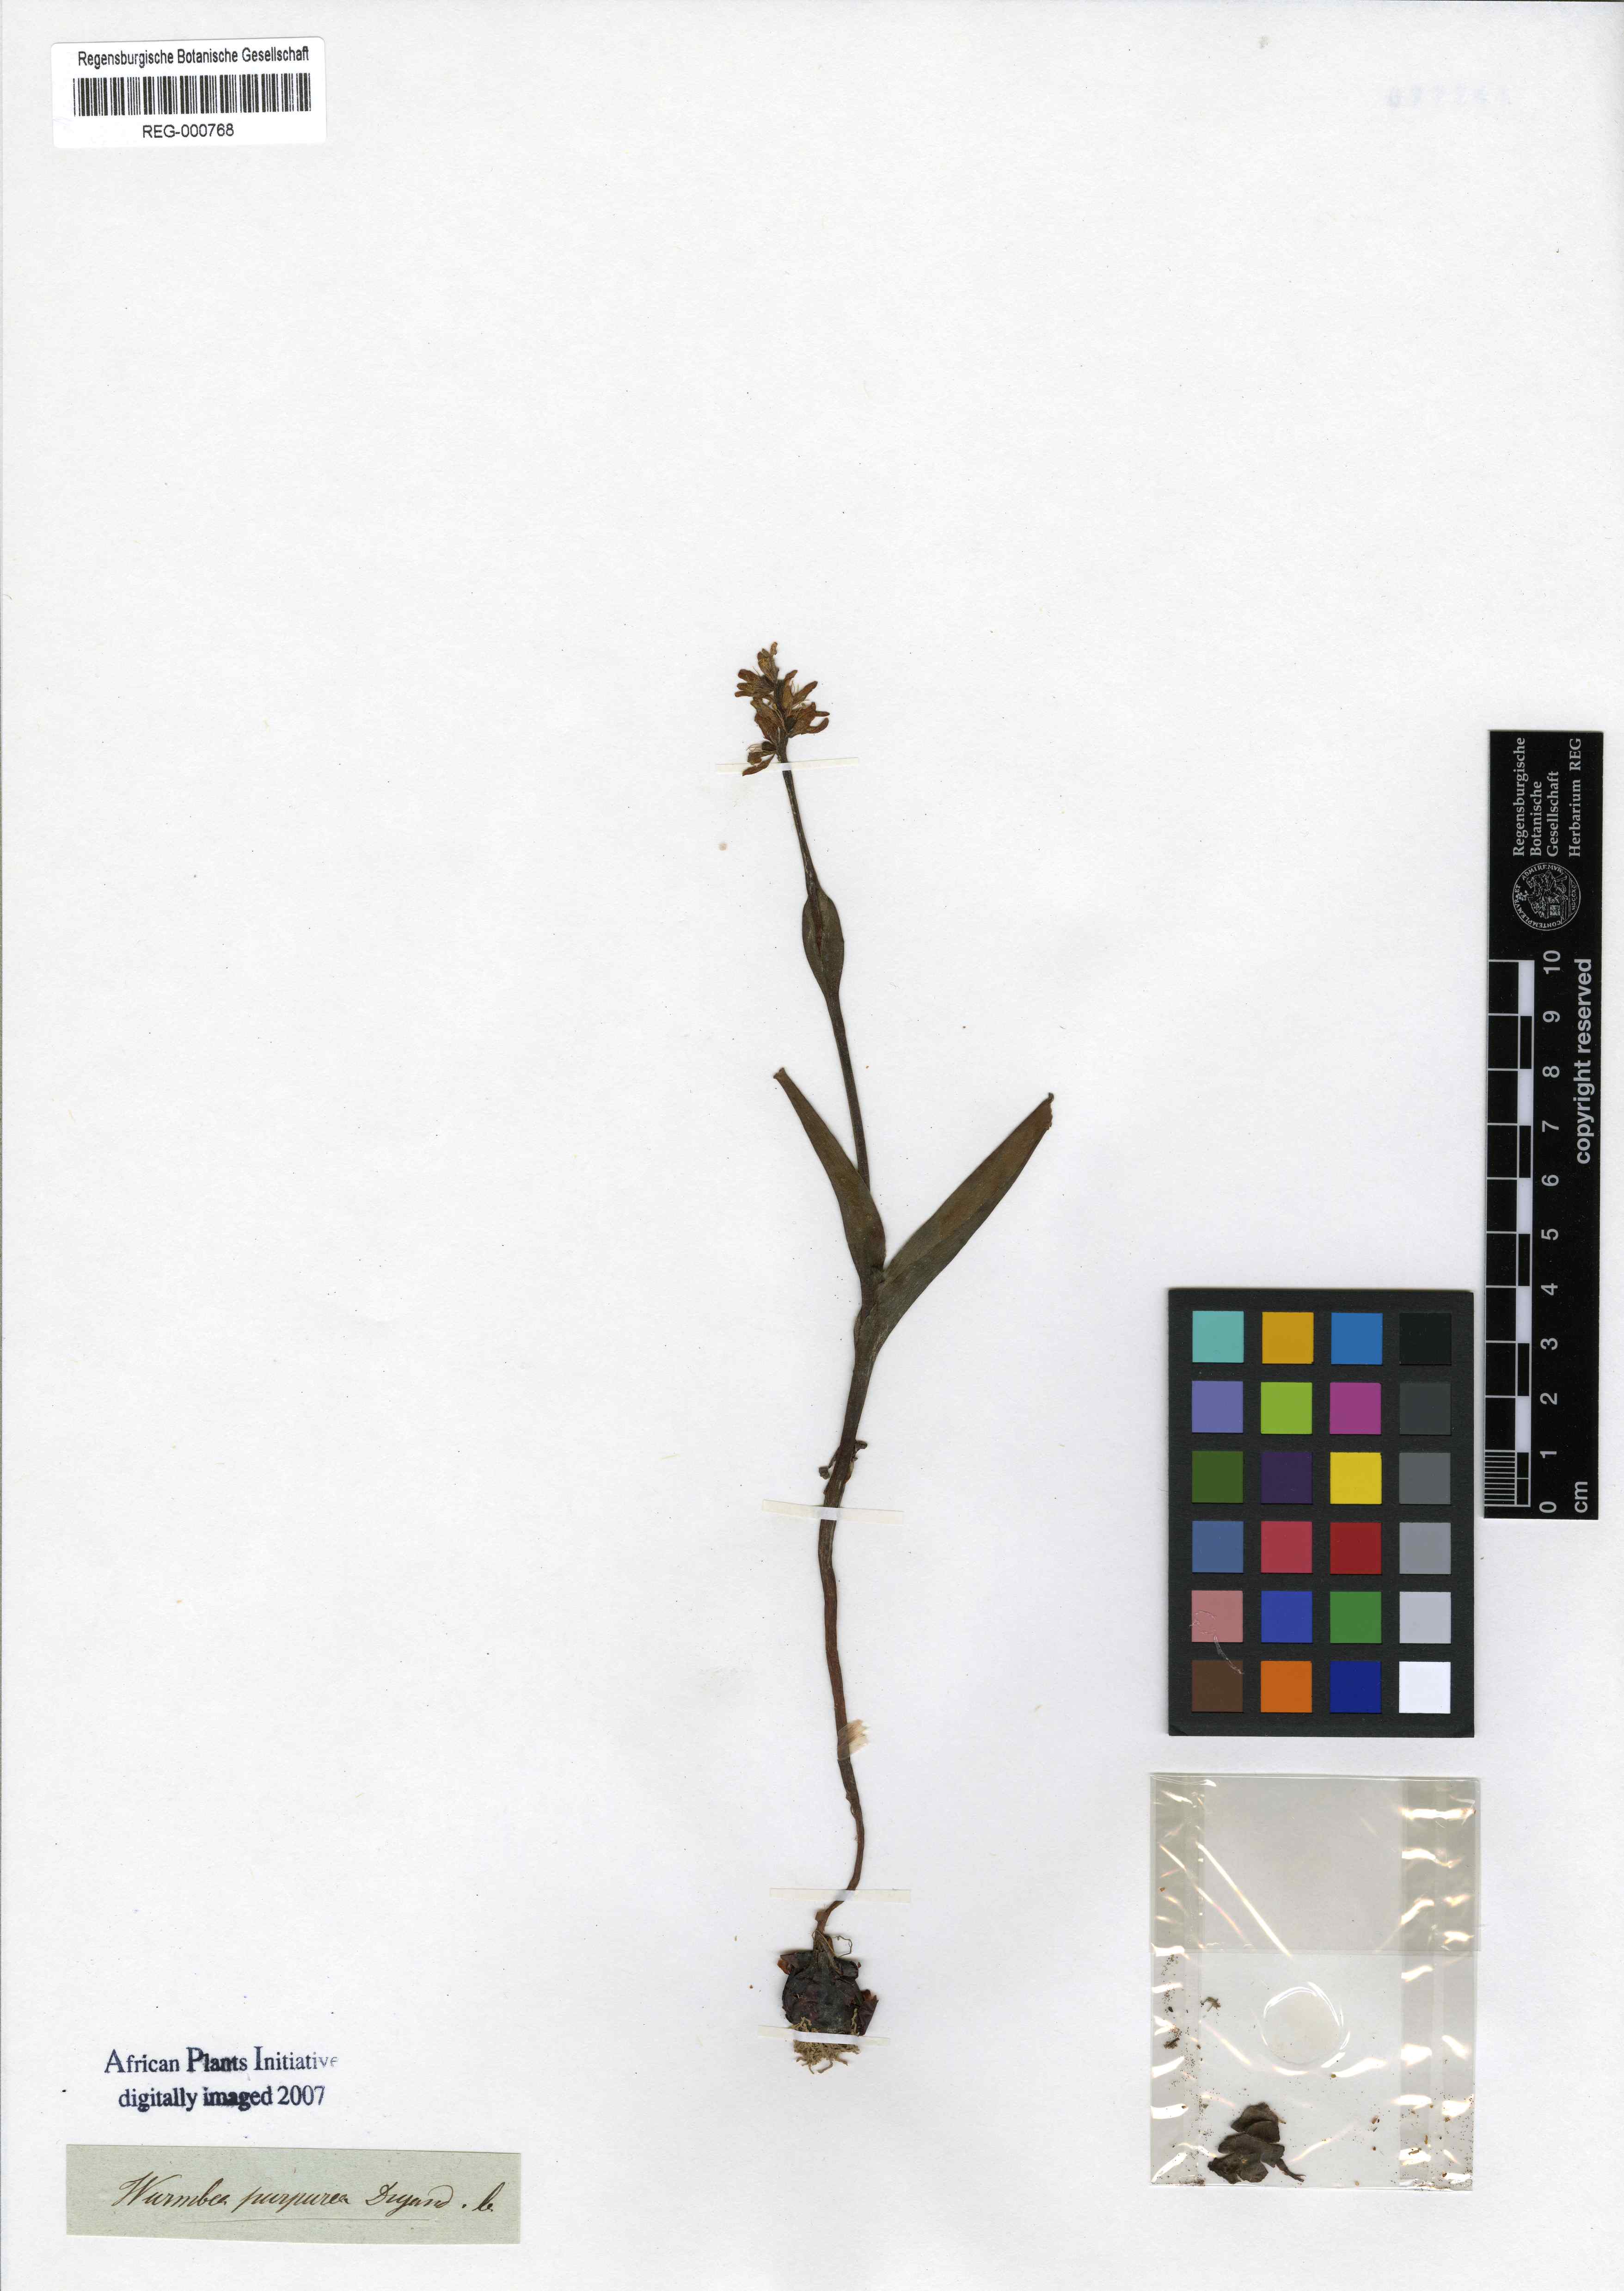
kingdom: Plantae
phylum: Tracheophyta
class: Liliopsida
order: Liliales
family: Colchicaceae
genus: Wurmbea
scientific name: Wurmbea marginata
